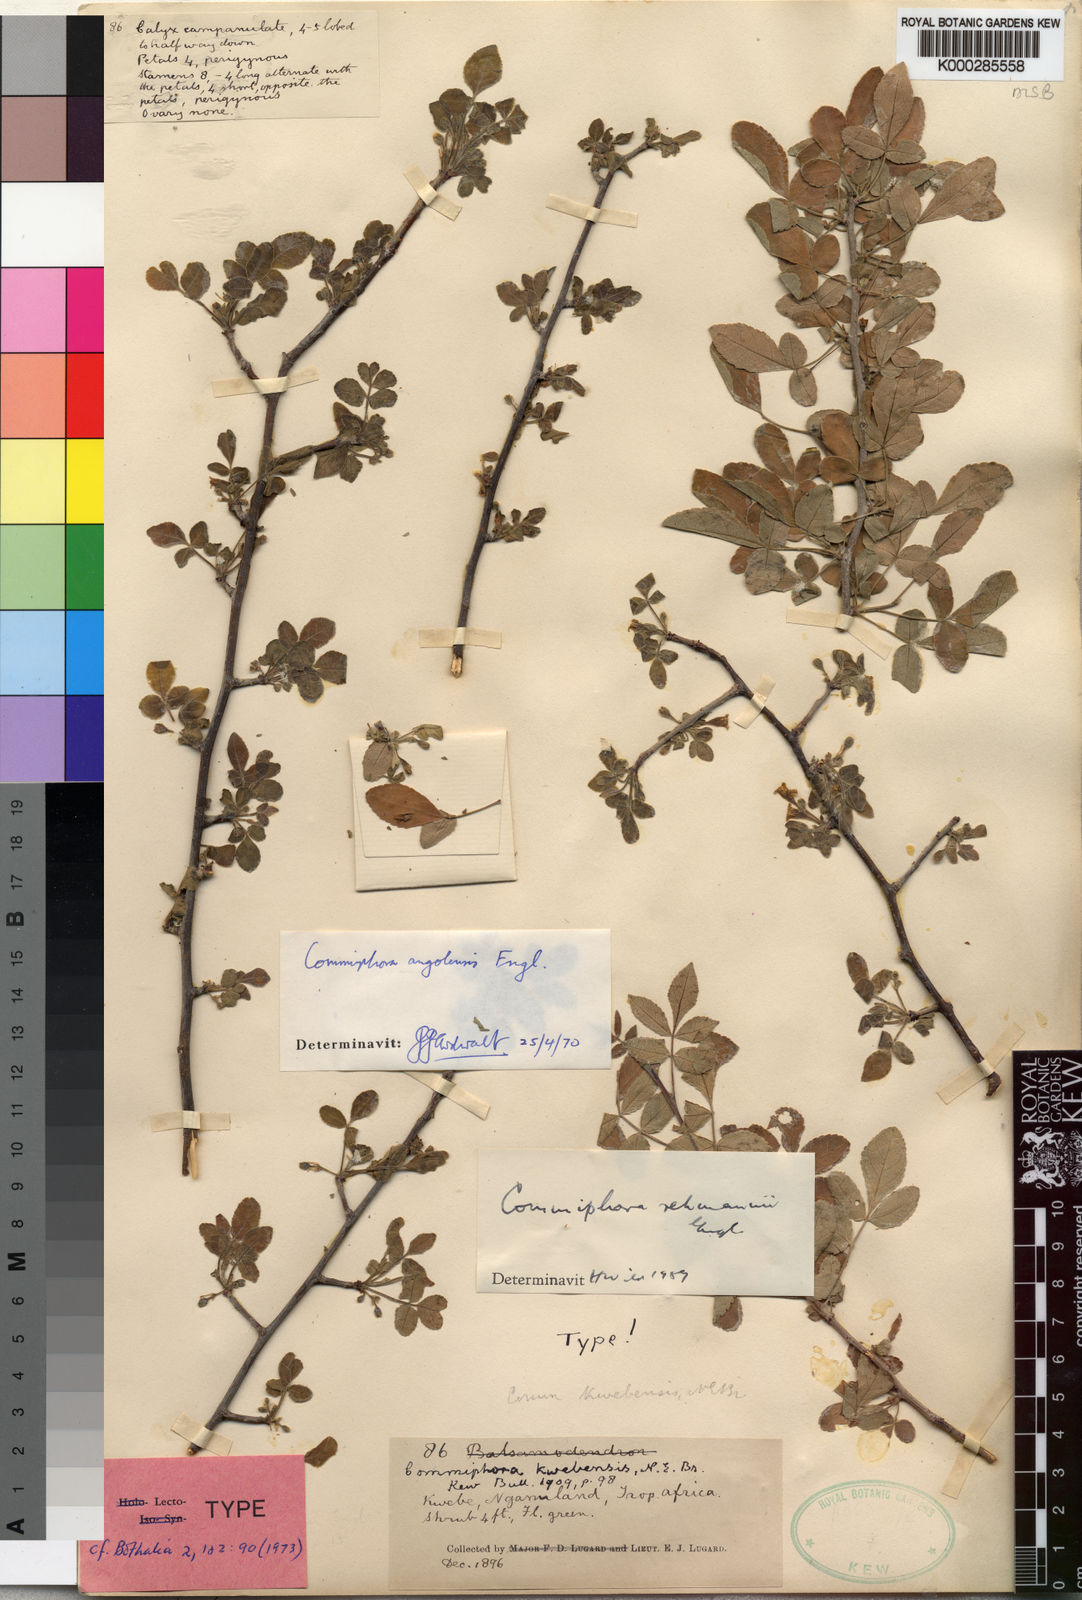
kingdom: Plantae
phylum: Tracheophyta
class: Magnoliopsida
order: Sapindales
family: Burseraceae
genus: Commiphora
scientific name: Commiphora angolensis
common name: Poison-grub
